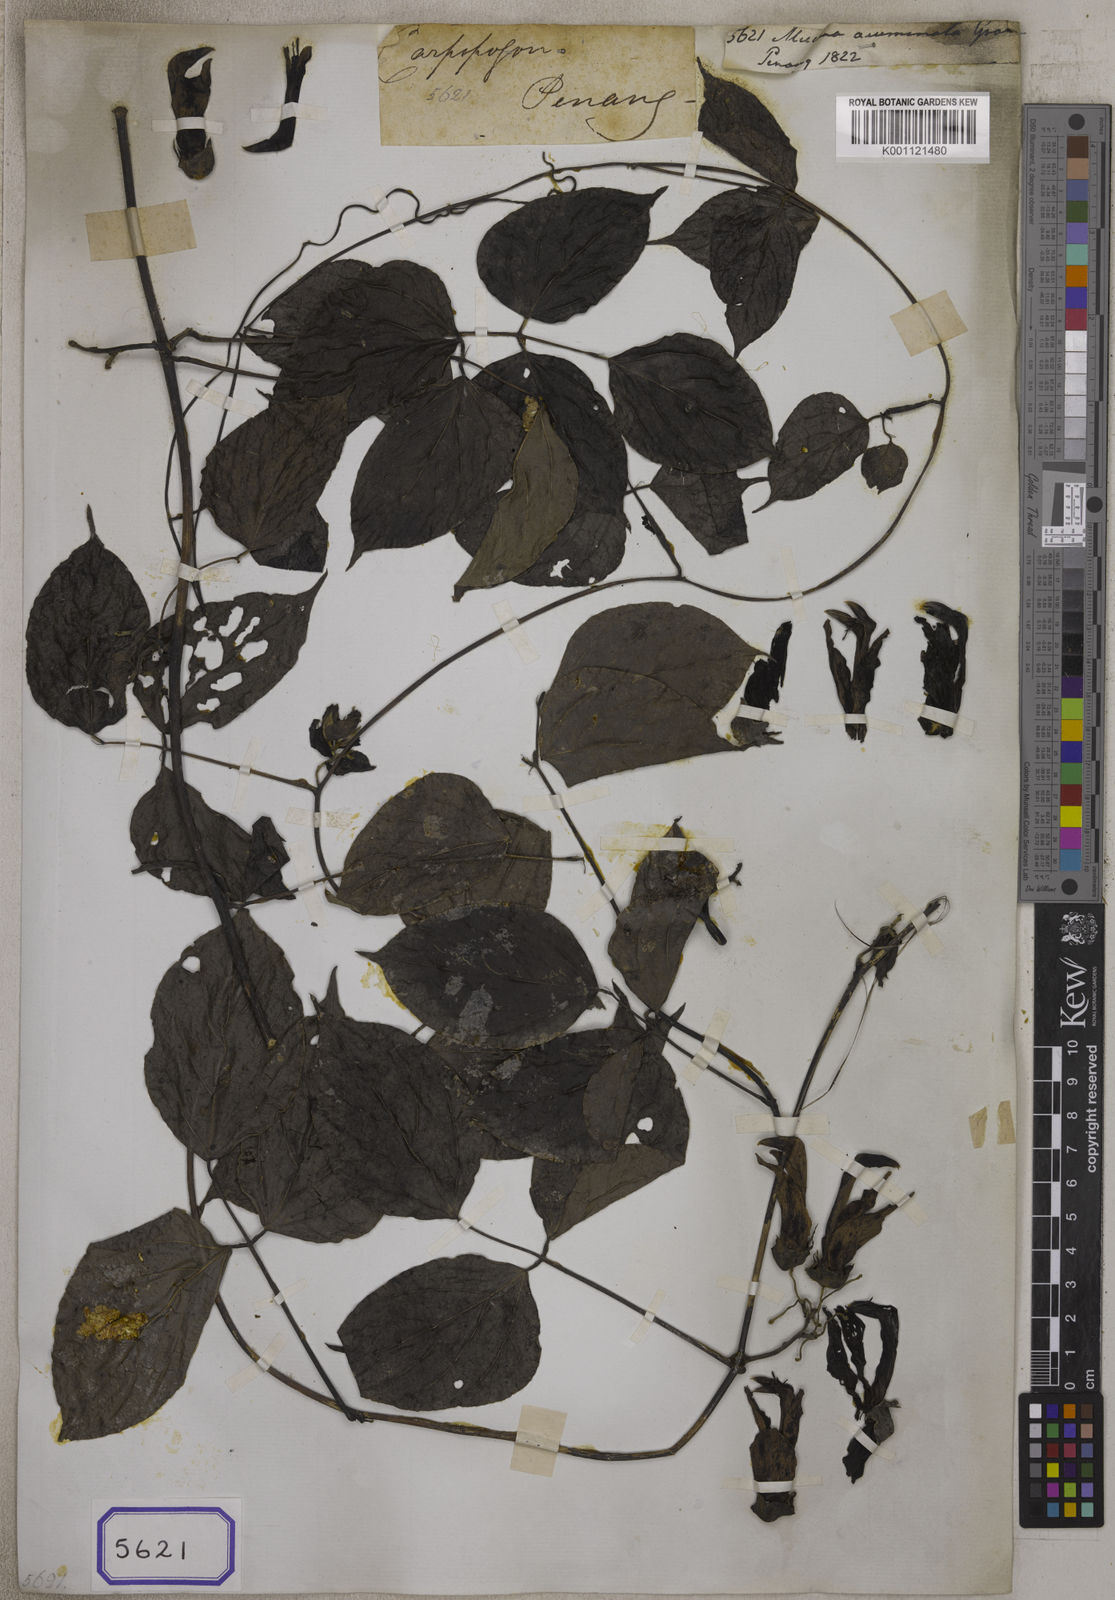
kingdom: Plantae
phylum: Tracheophyta
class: Magnoliopsida
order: Fabales
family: Fabaceae
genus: Mucuna
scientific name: Mucuna
